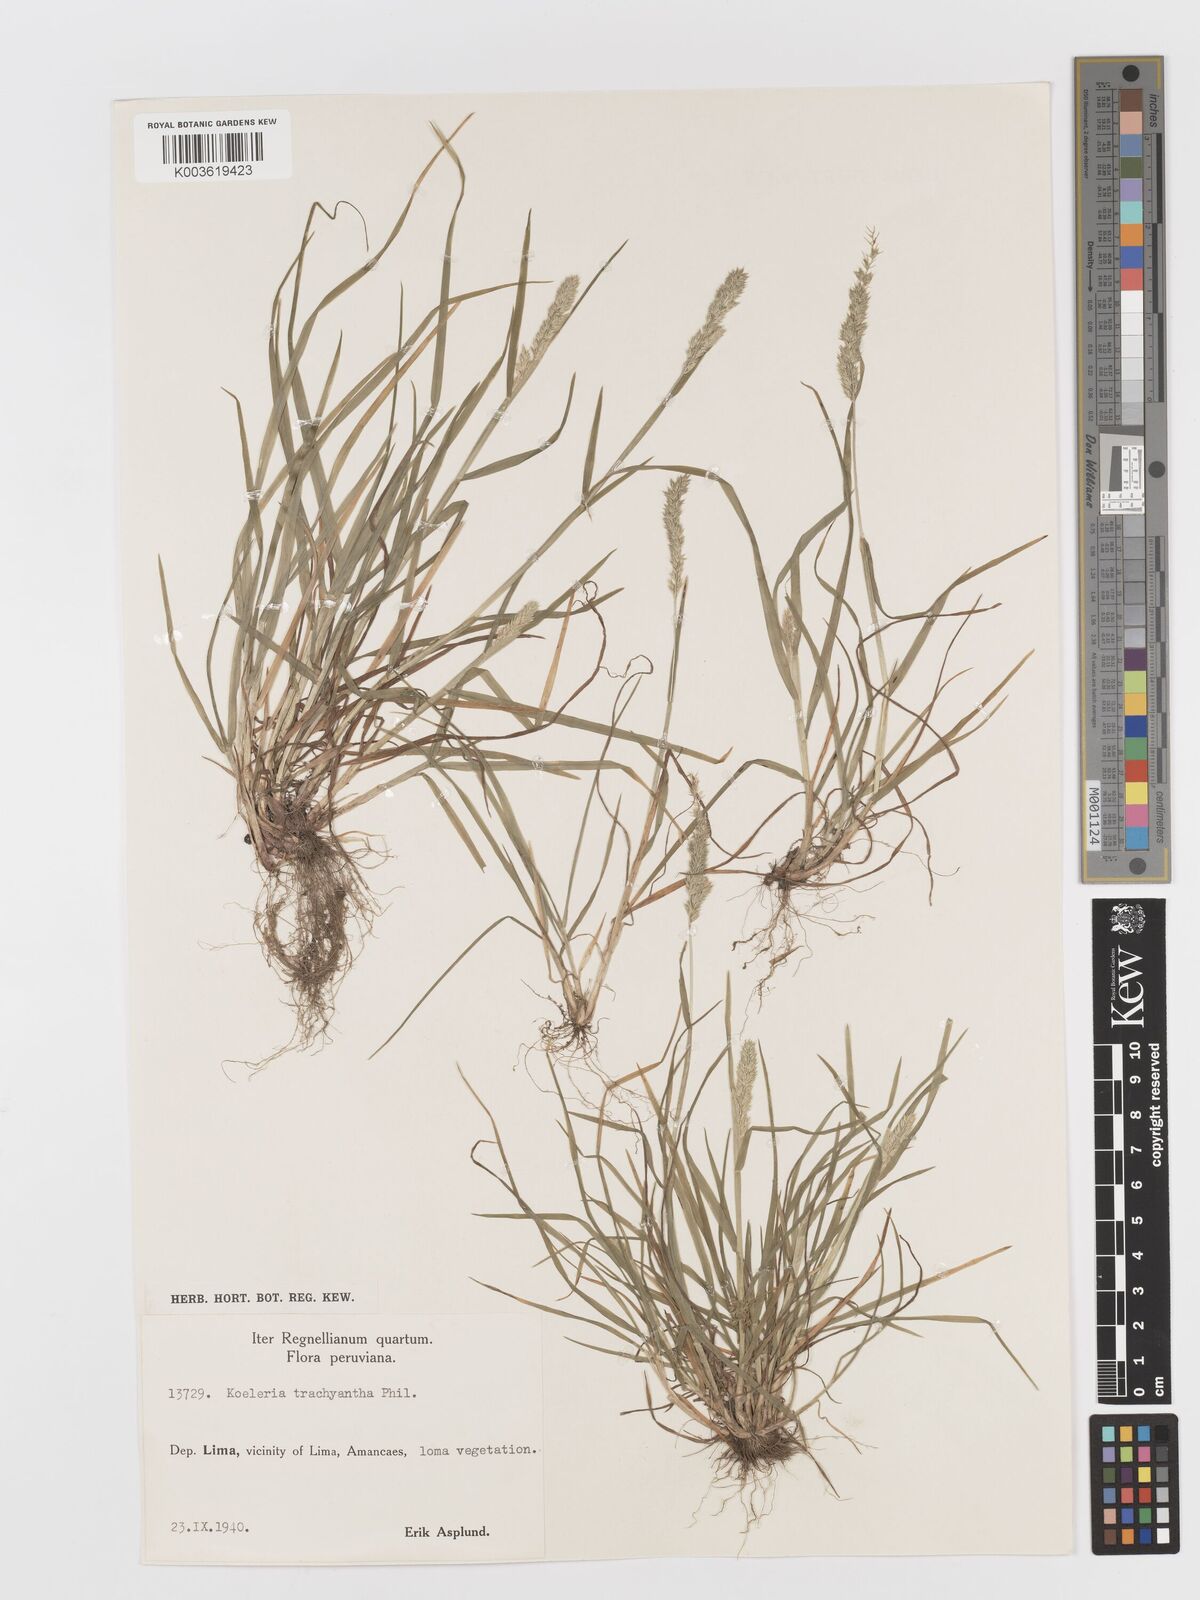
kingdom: Plantae
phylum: Tracheophyta
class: Liliopsida
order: Poales
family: Poaceae
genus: Rostraria
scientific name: Rostraria trachyantha
